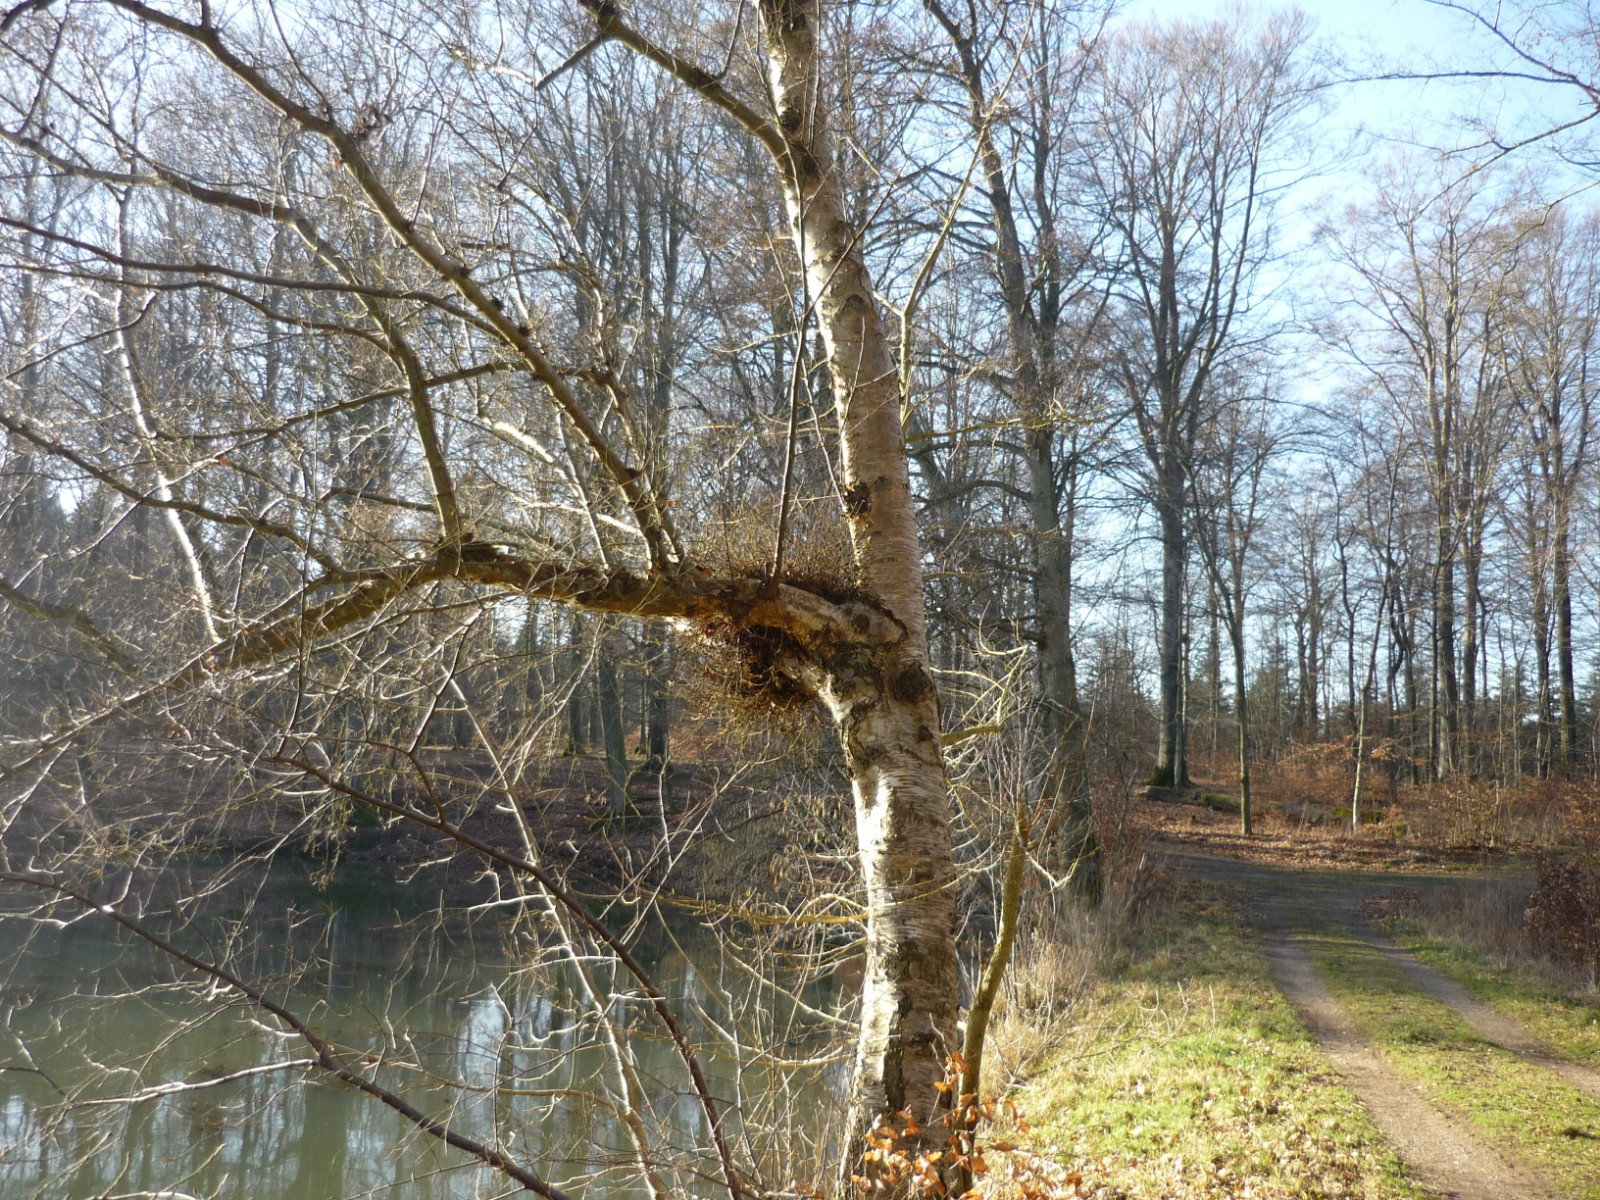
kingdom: Fungi
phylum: Ascomycota
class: Taphrinomycetes
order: Taphrinales
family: Taphrinaceae
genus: Taphrina
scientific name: Taphrina betulina
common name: hekse-sækdug
